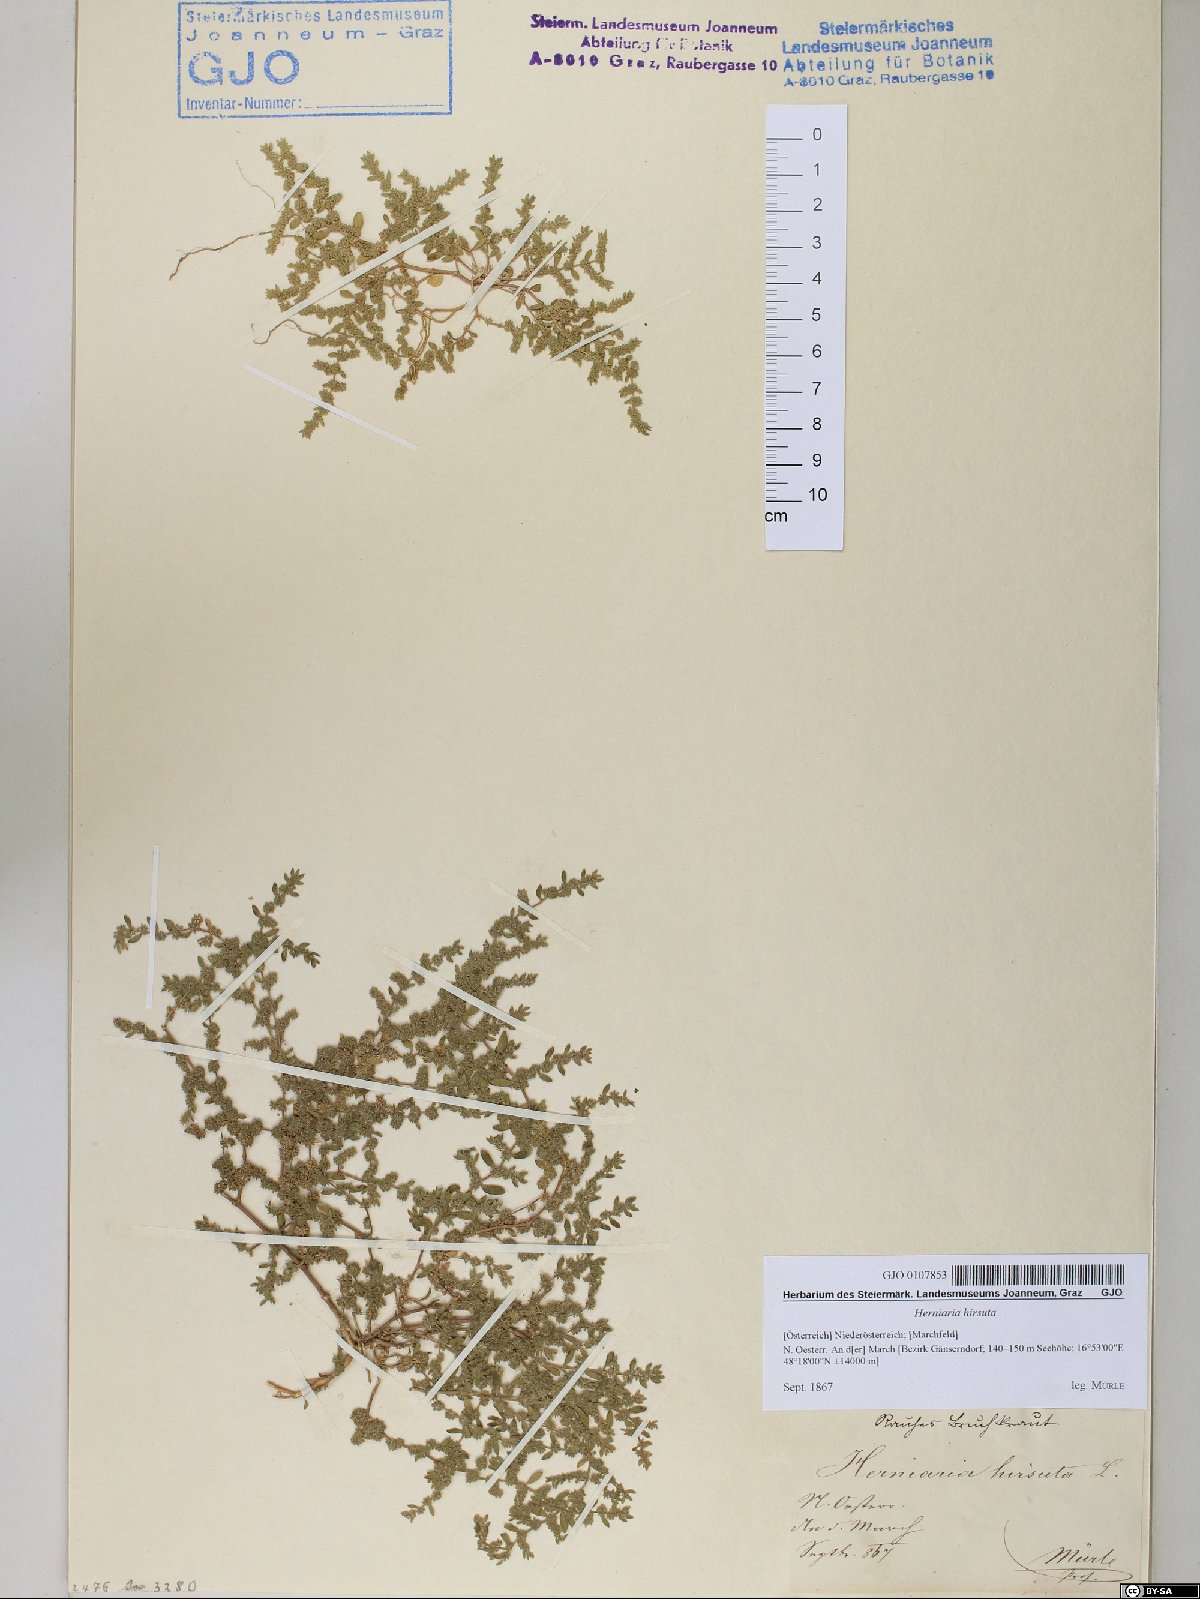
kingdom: Plantae
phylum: Tracheophyta
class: Magnoliopsida
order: Caryophyllales
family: Caryophyllaceae
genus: Herniaria
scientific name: Herniaria hirsuta
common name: Hairy rupturewort
